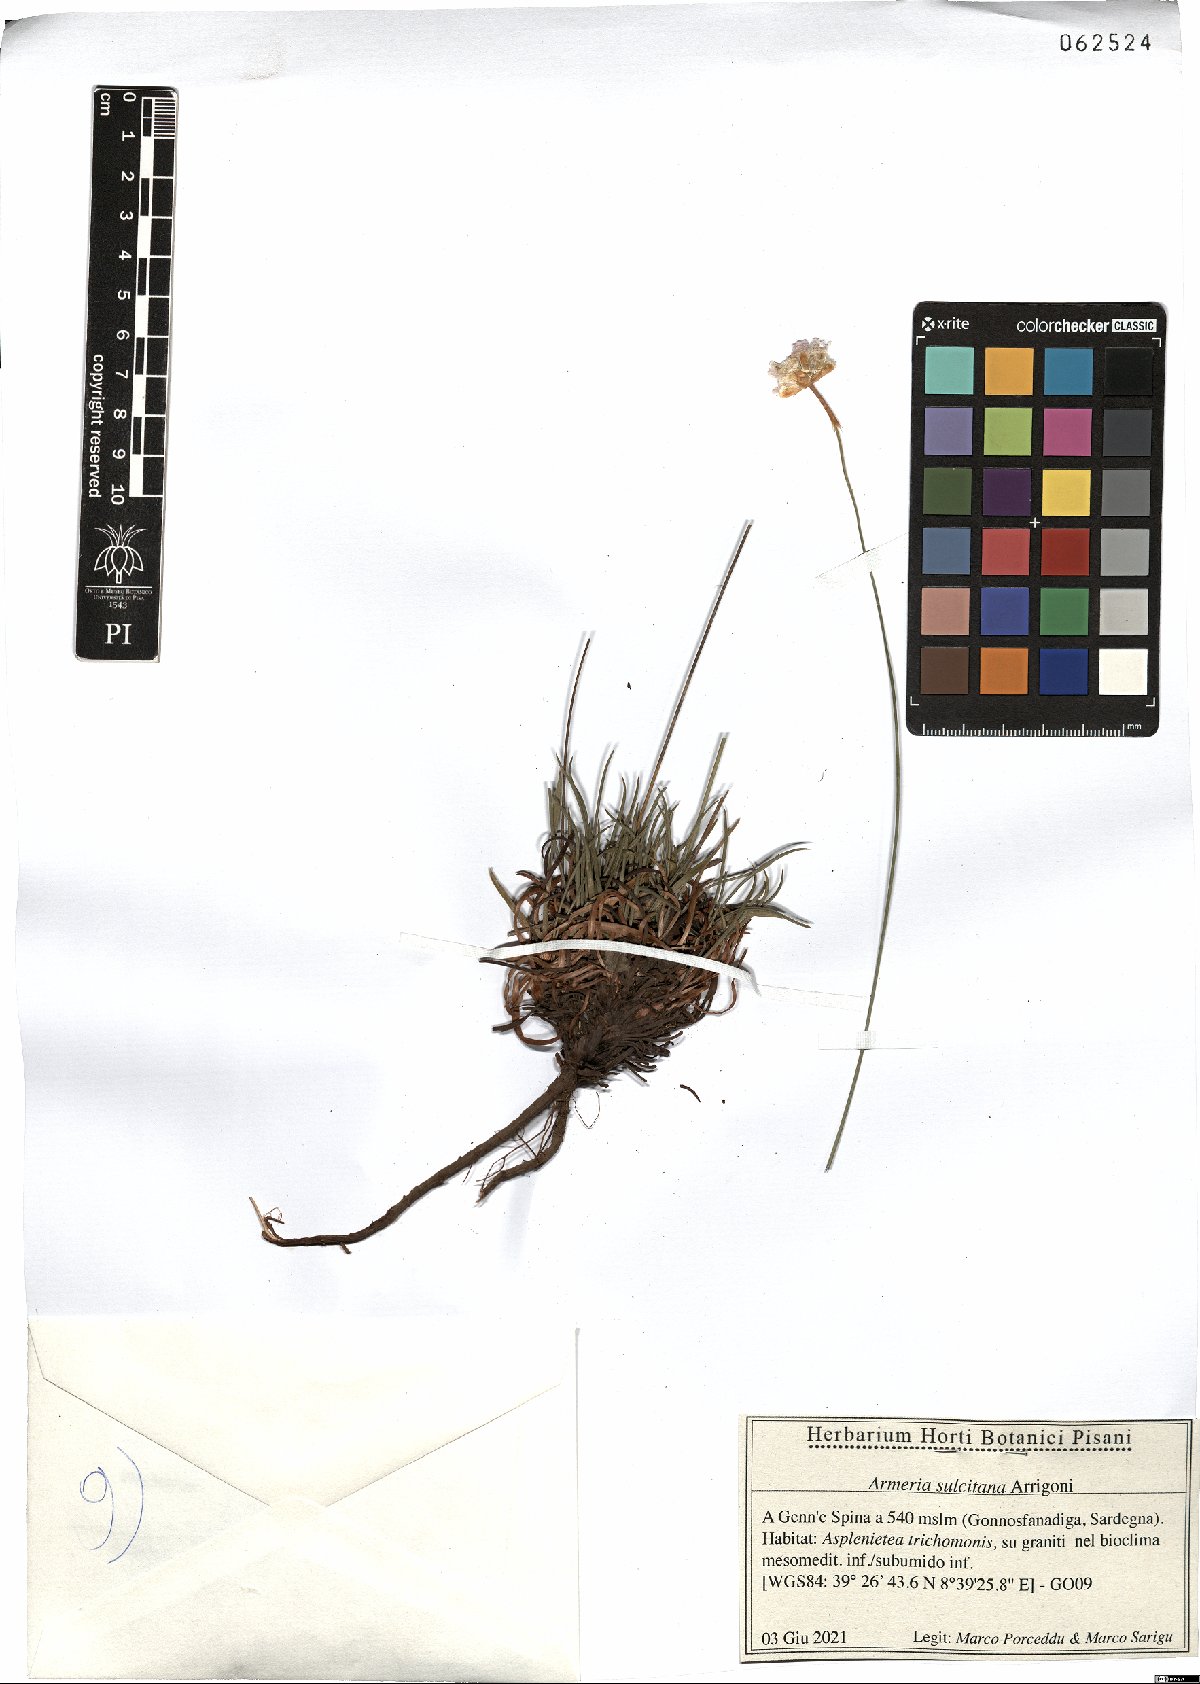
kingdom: Plantae
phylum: Tracheophyta
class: Magnoliopsida
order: Caryophyllales
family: Plumbaginaceae
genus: Armeria
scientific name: Armeria sulcitana
